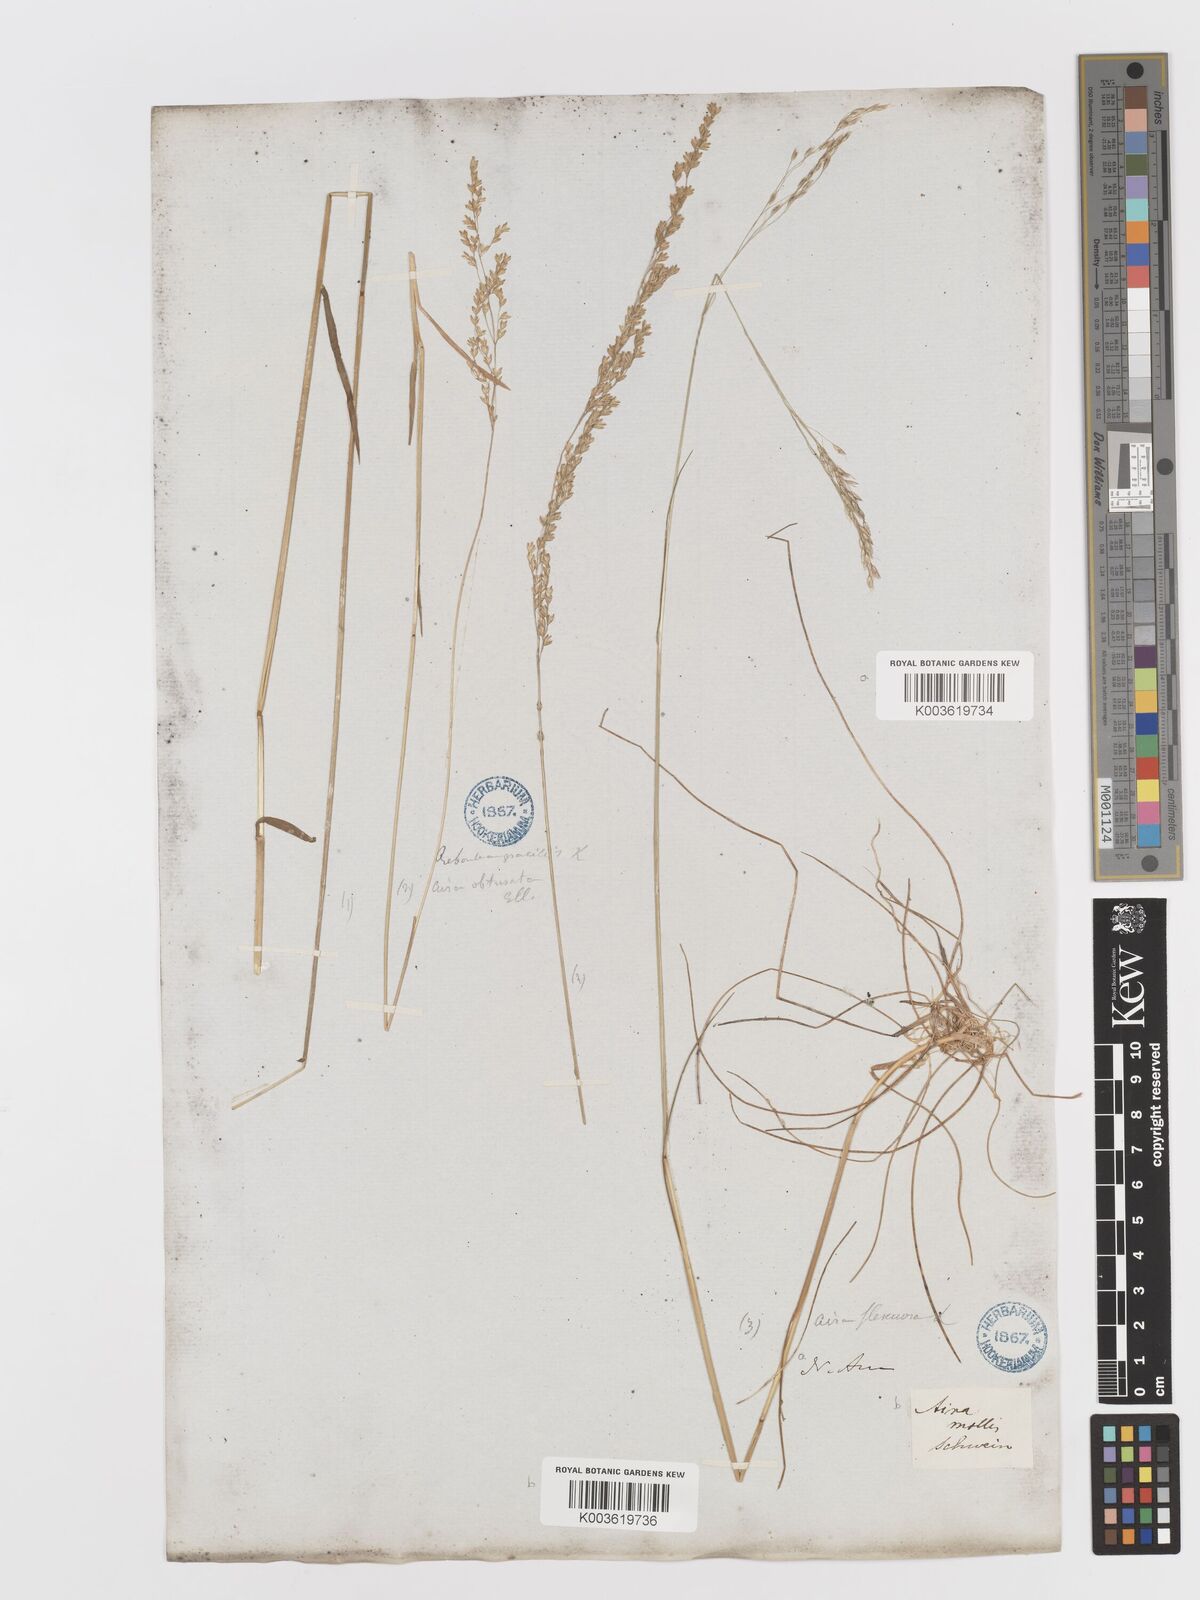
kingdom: Plantae
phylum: Tracheophyta
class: Liliopsida
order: Poales
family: Poaceae
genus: Sphenopholis
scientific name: Sphenopholis nitida
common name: Shiny wedgegrass
